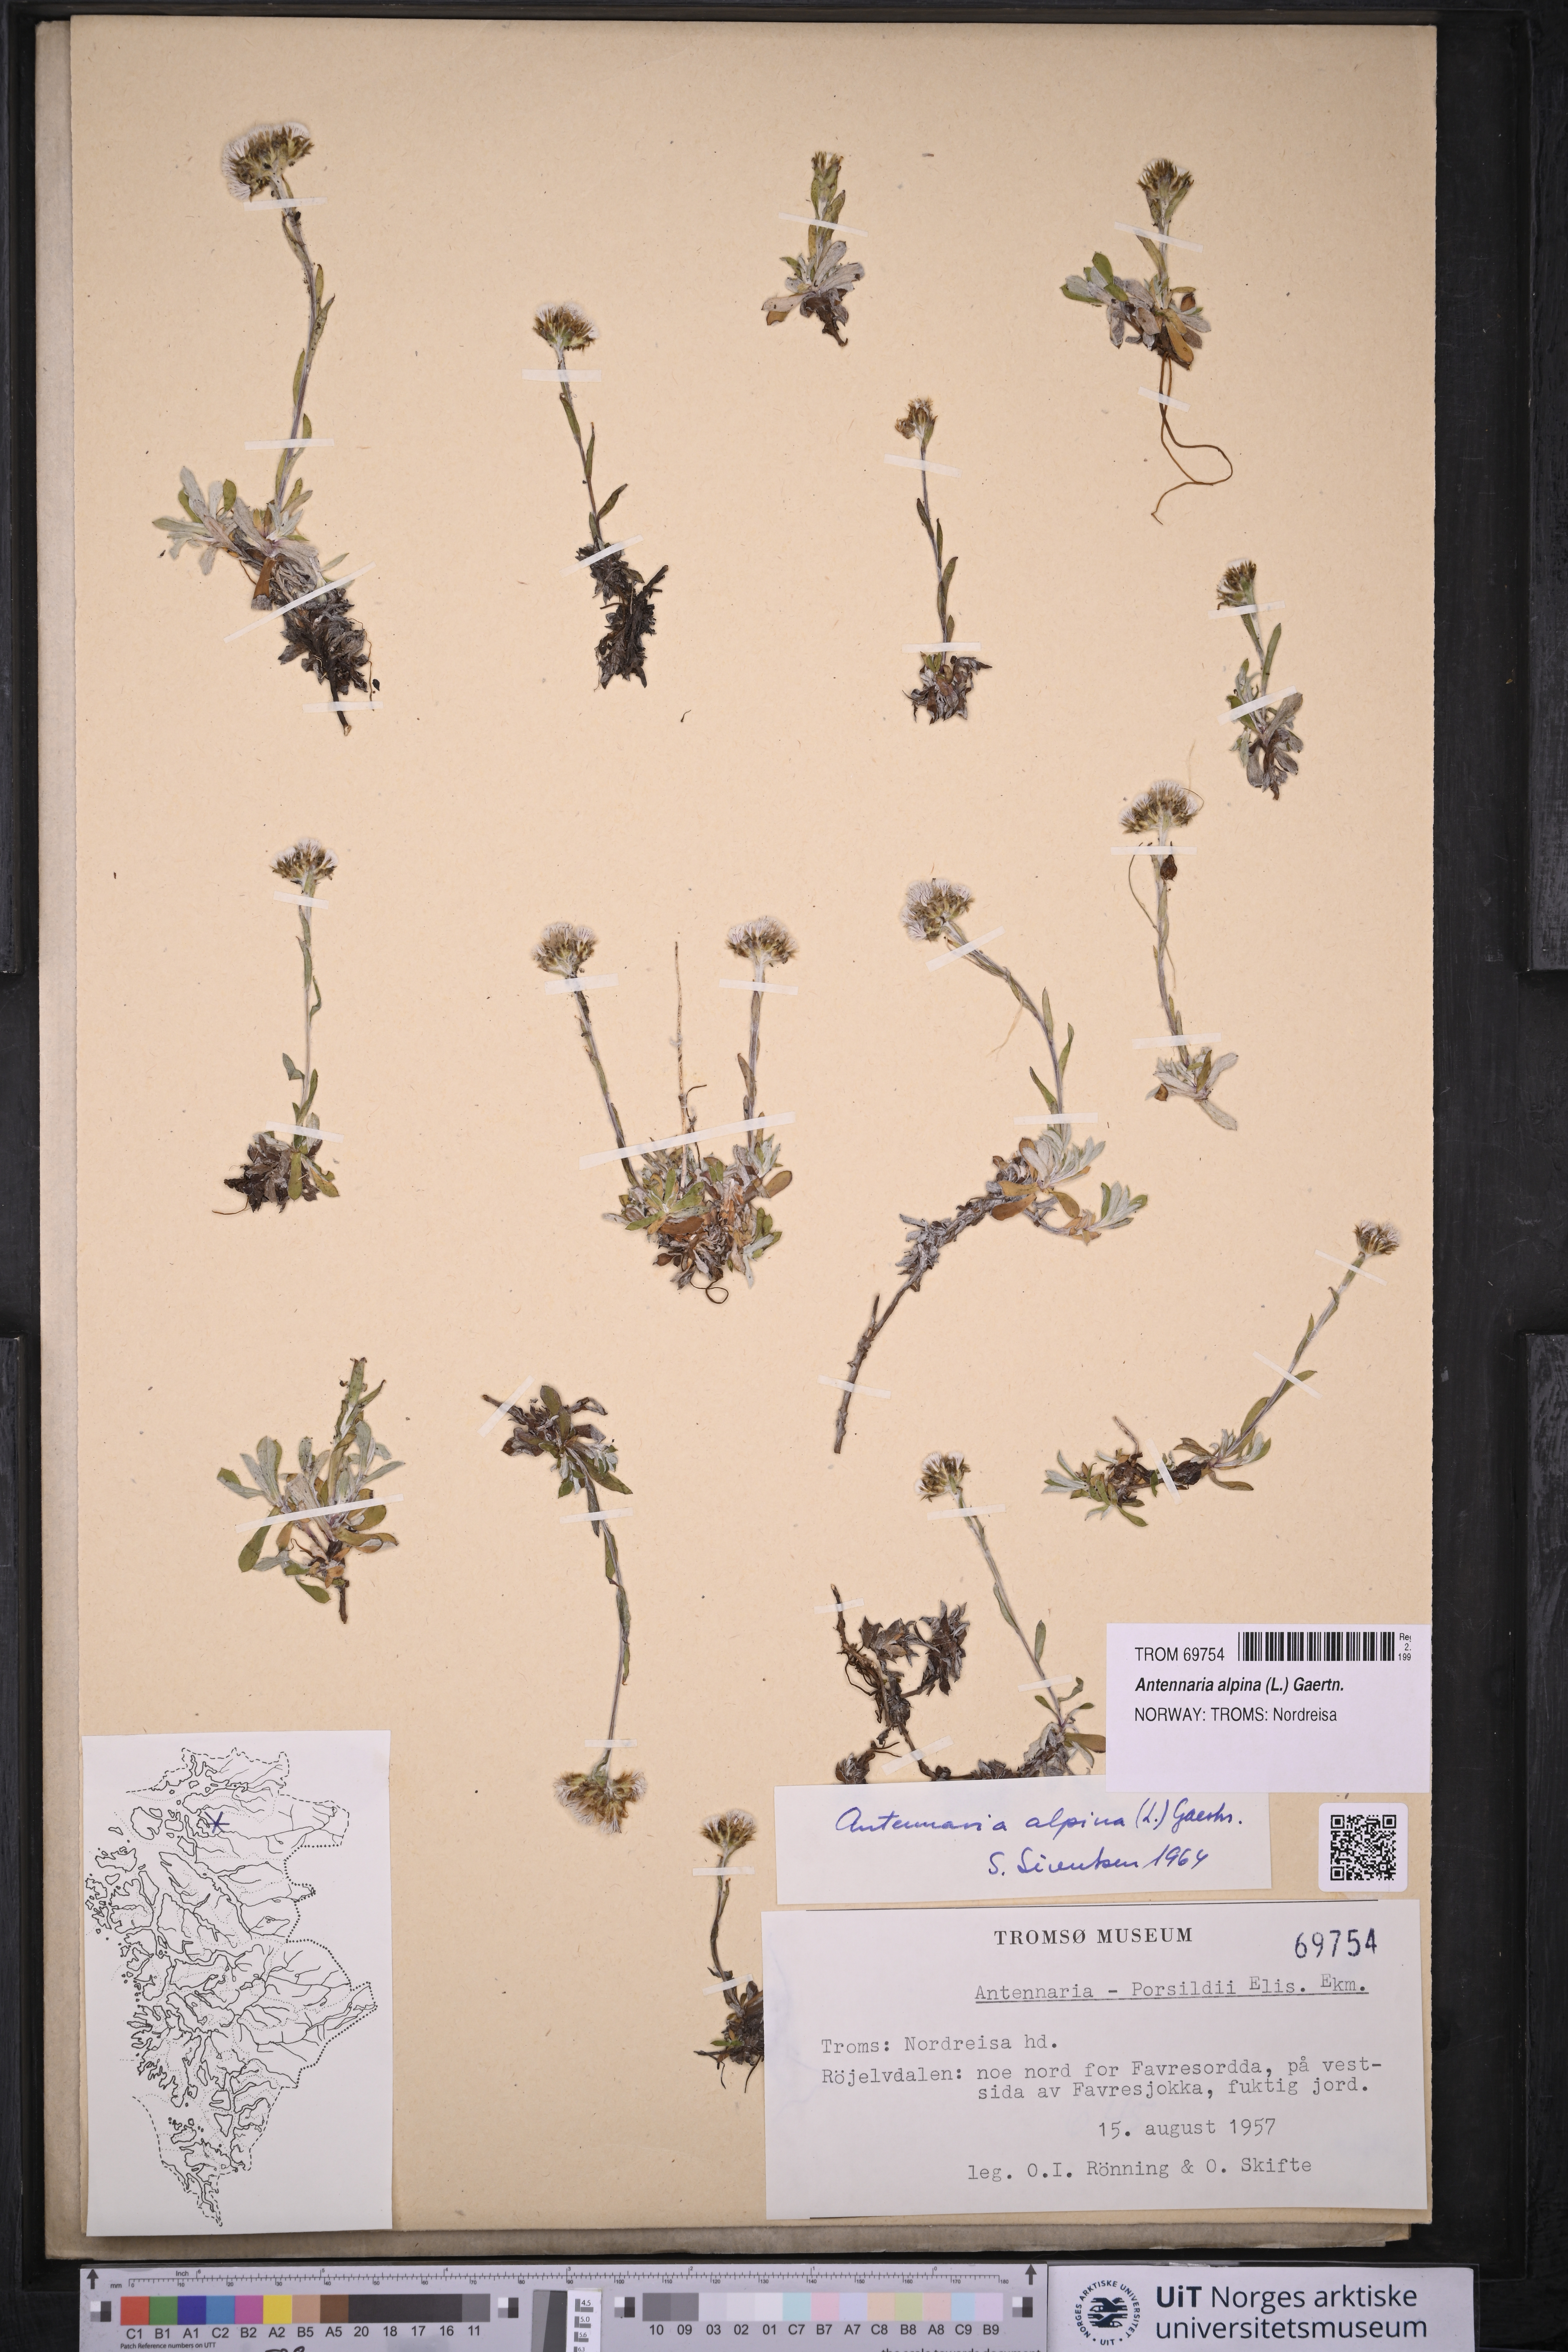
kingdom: Plantae
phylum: Tracheophyta
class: Magnoliopsida
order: Asterales
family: Asteraceae
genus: Antennaria
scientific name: Antennaria alpina
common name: Alpine pussytoes
